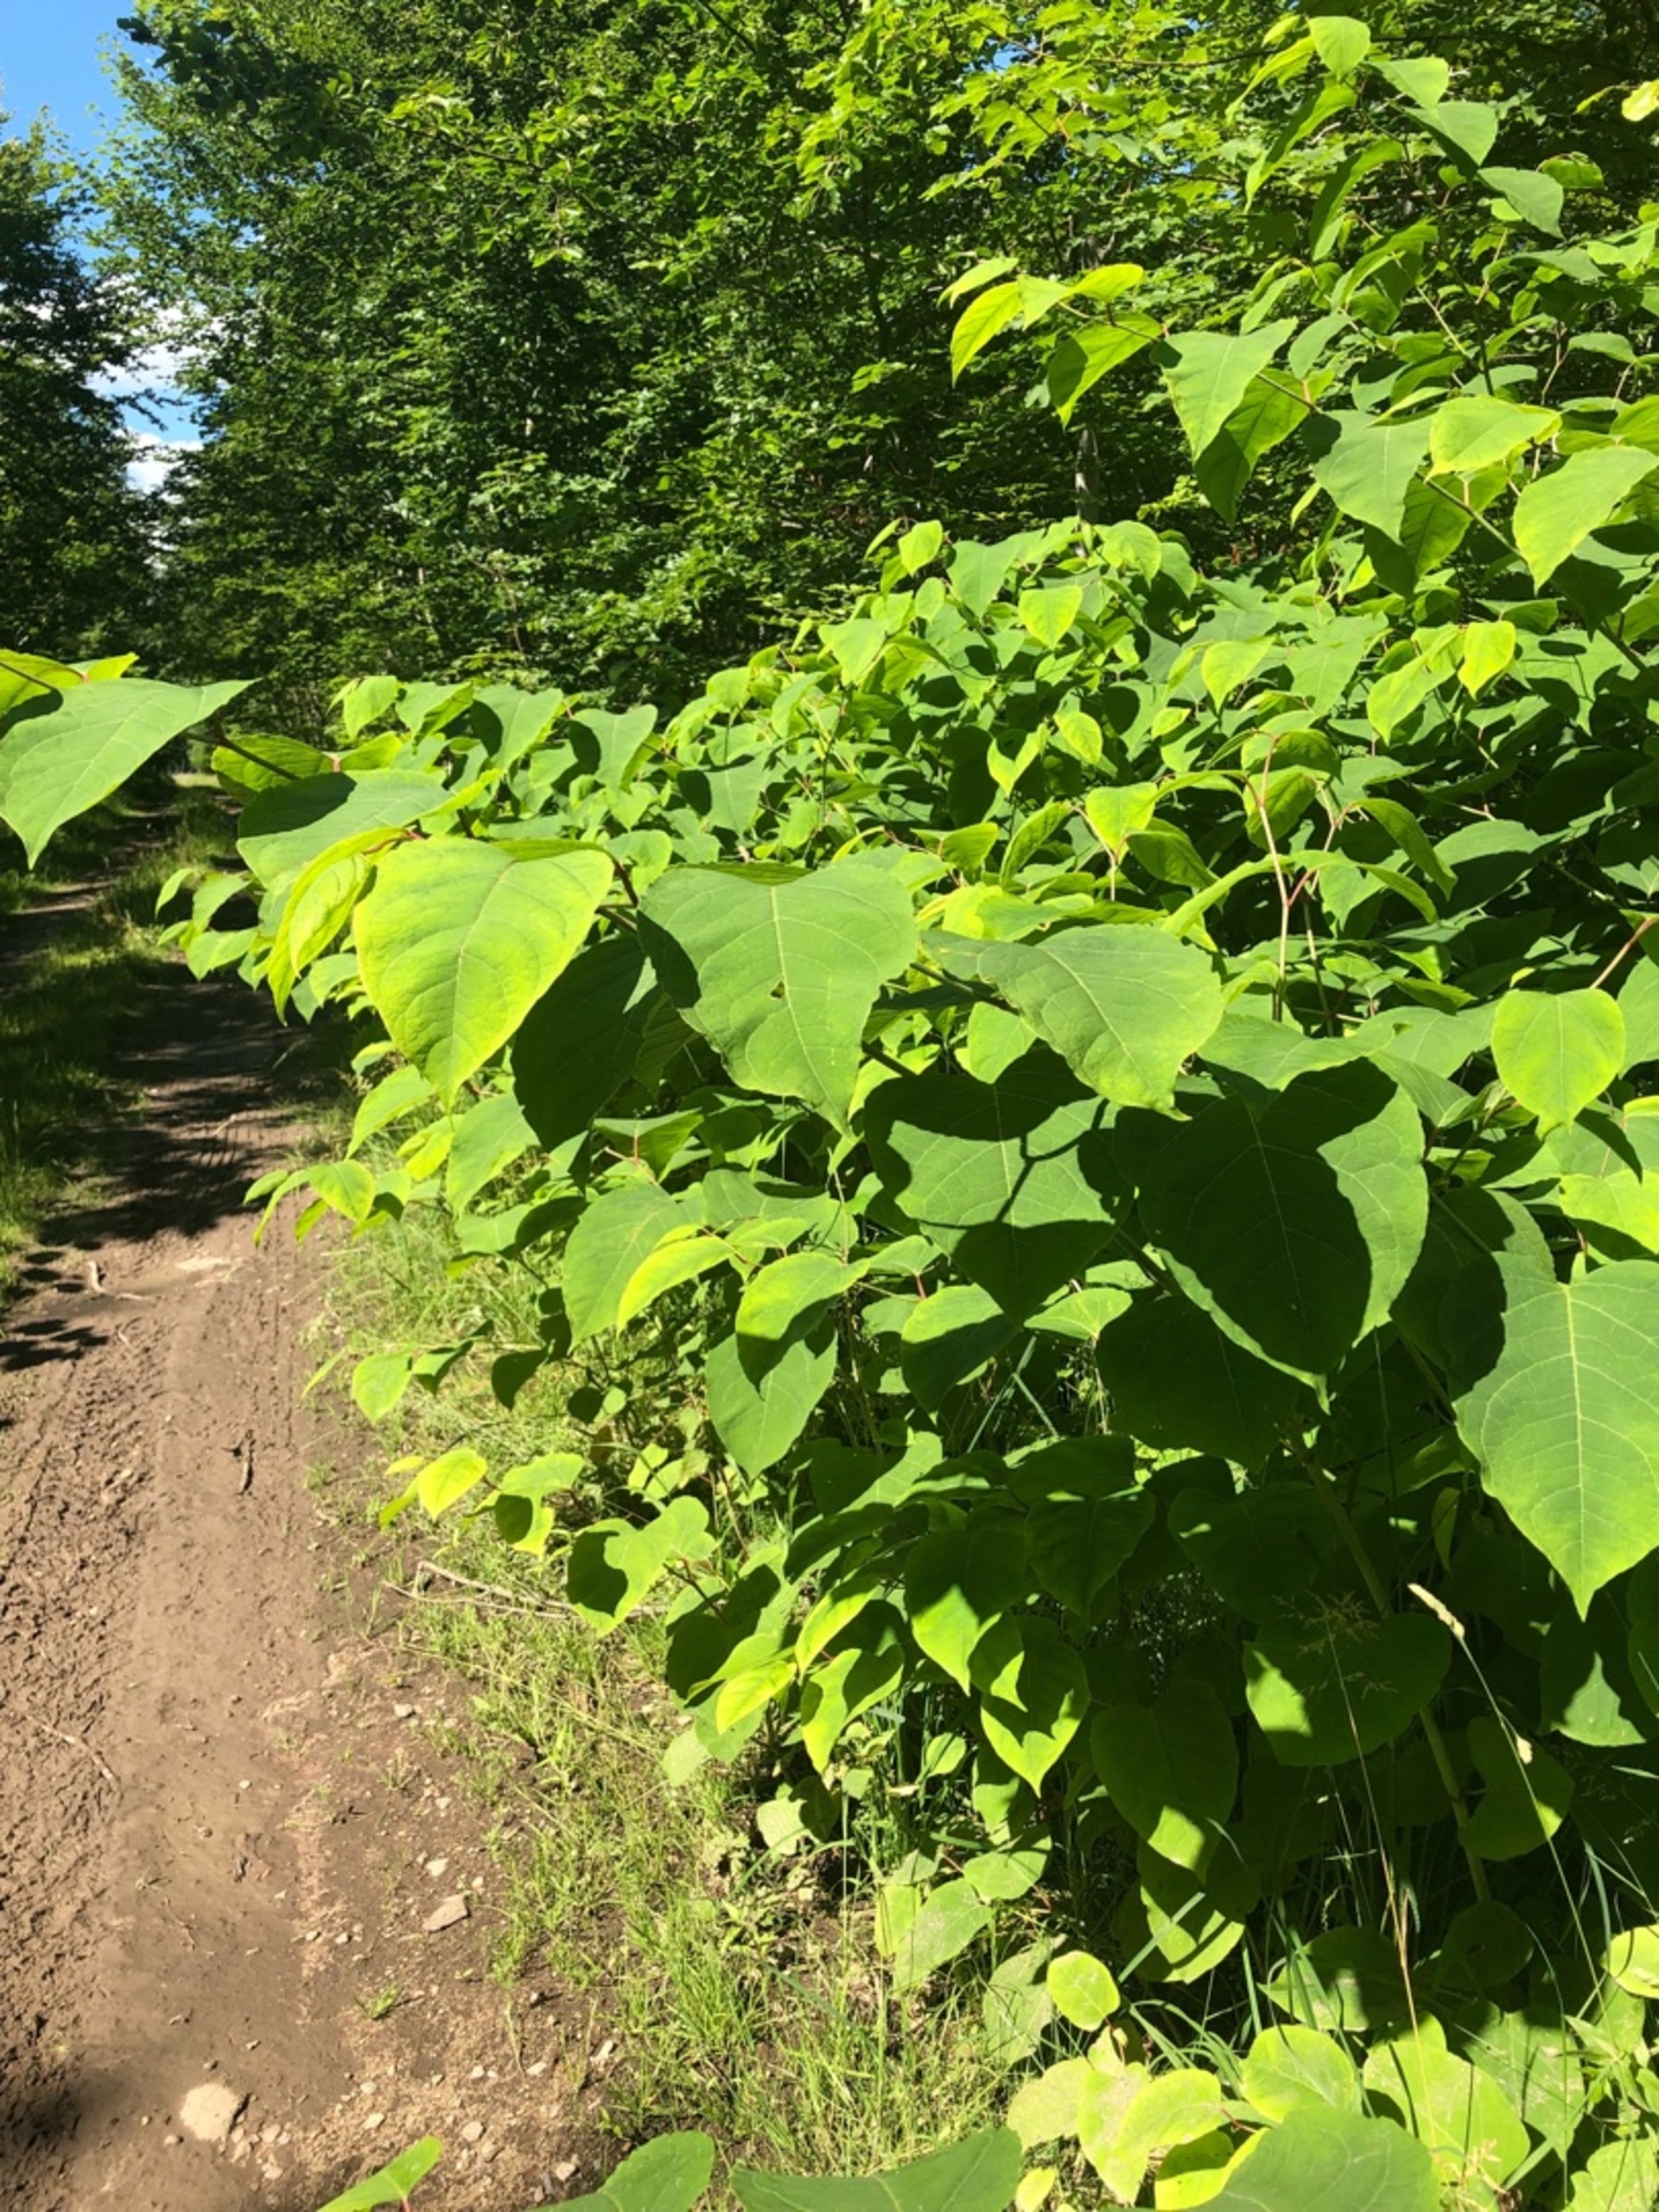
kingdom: Plantae
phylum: Tracheophyta
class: Magnoliopsida
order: Caryophyllales
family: Polygonaceae
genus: Reynoutria
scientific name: Reynoutria sachalinensis
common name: Kæmpe-pileurt
